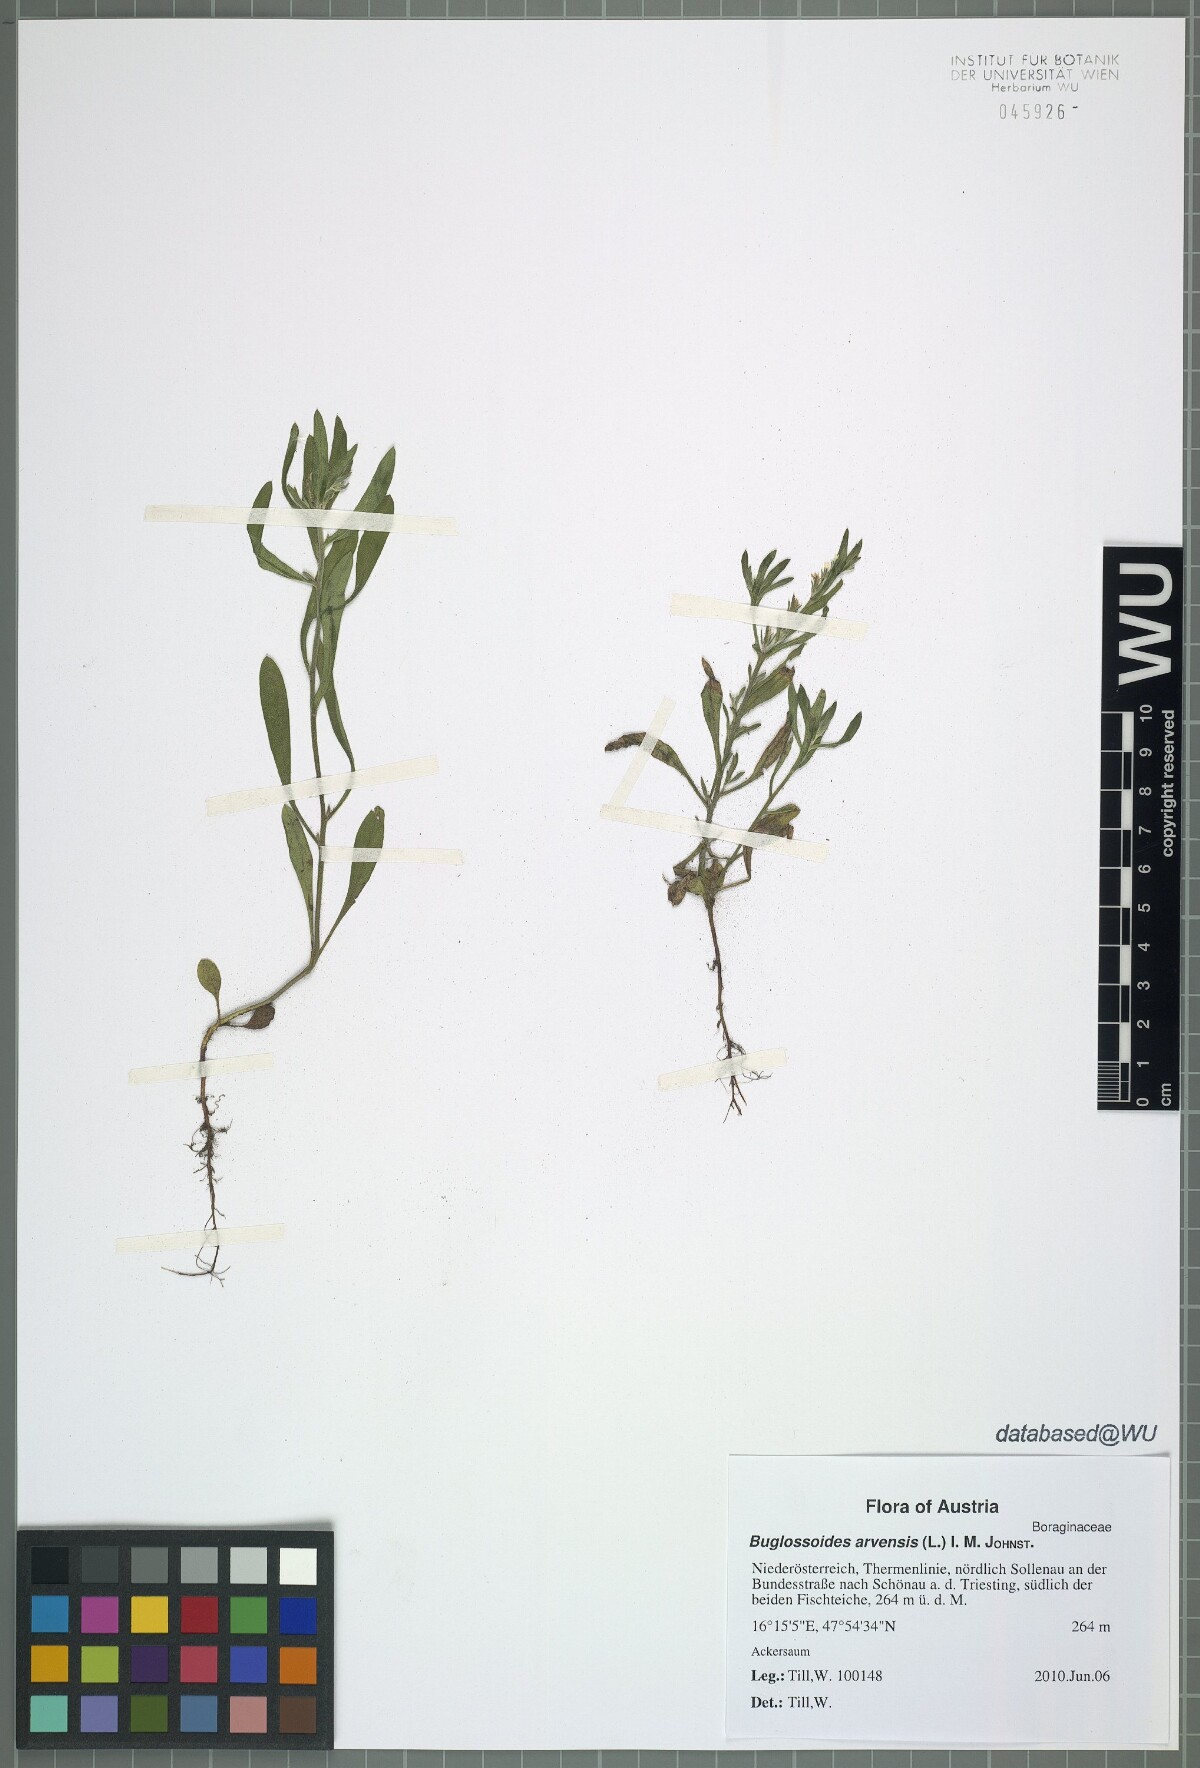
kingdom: Plantae
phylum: Tracheophyta
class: Magnoliopsida
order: Boraginales
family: Boraginaceae
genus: Buglossoides
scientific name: Buglossoides arvensis
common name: Corn gromwell
